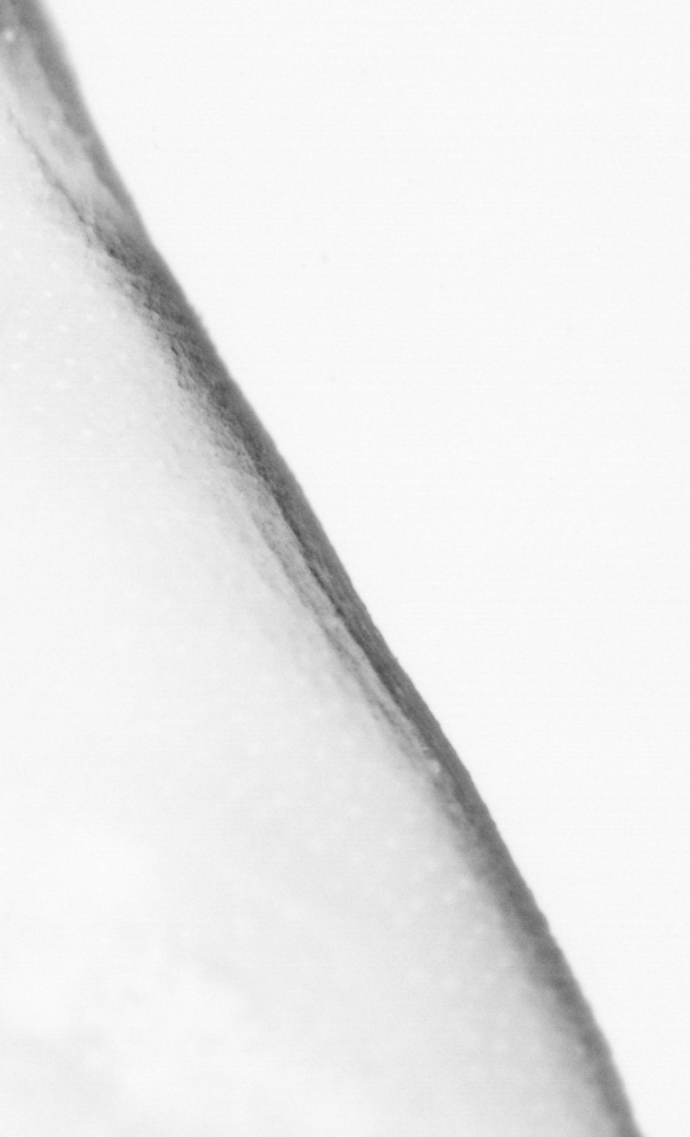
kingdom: Animalia
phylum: Chordata
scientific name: Chordata
